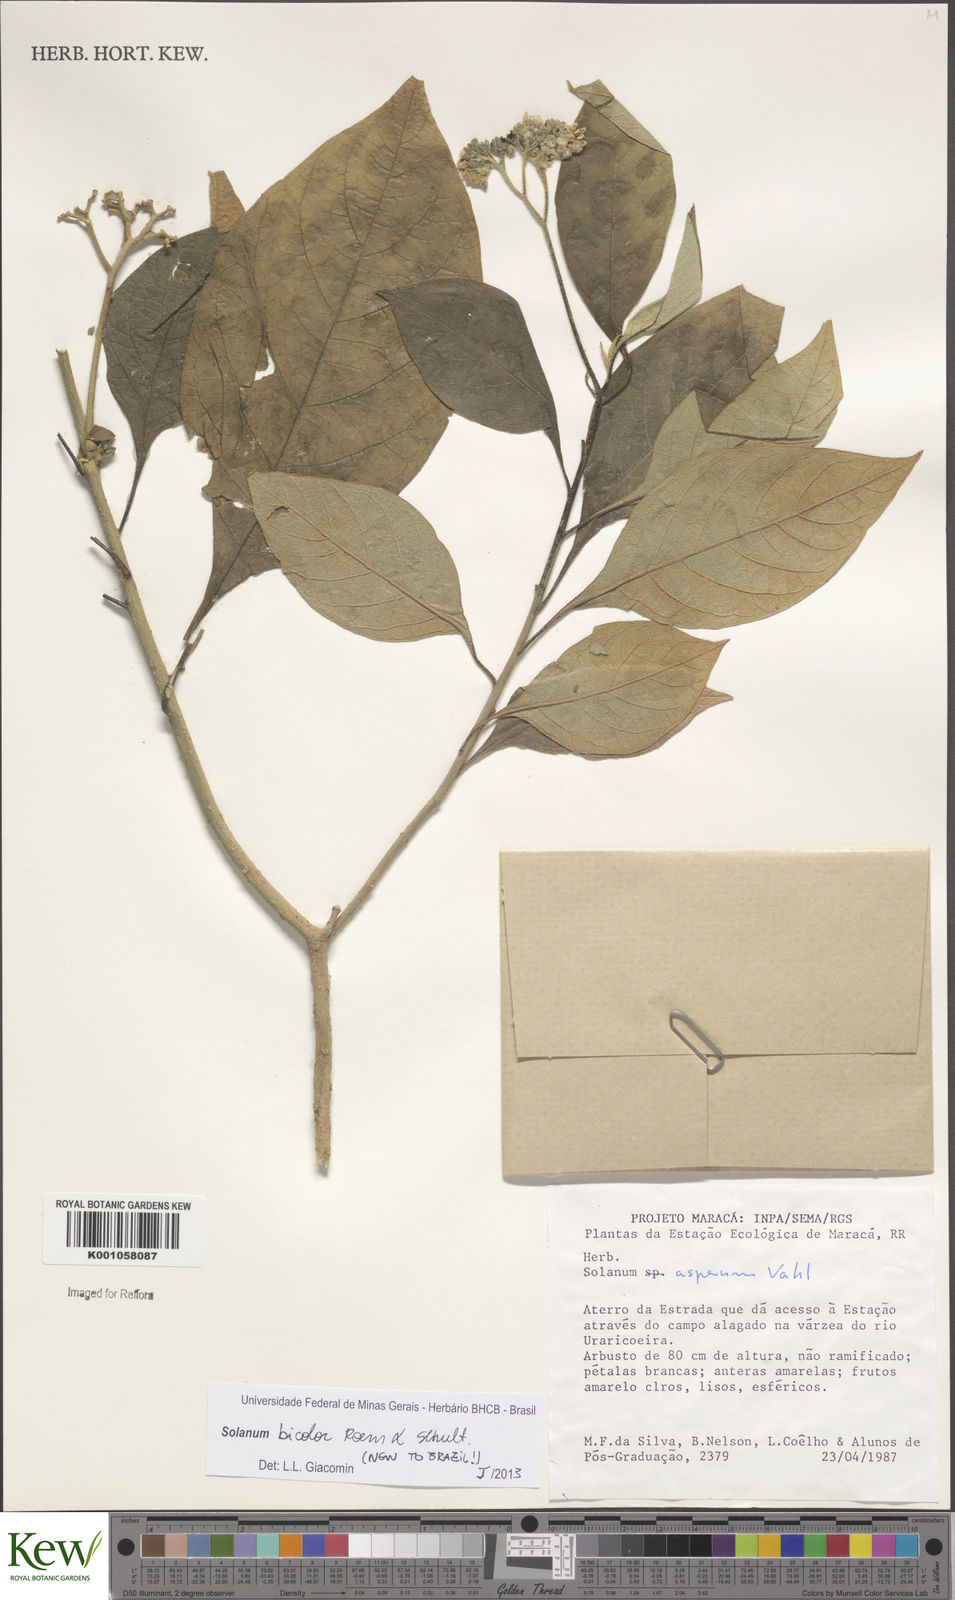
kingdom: Plantae
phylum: Tracheophyta
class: Magnoliopsida
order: Solanales
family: Solanaceae
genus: Solanum
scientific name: Solanum bicolor
